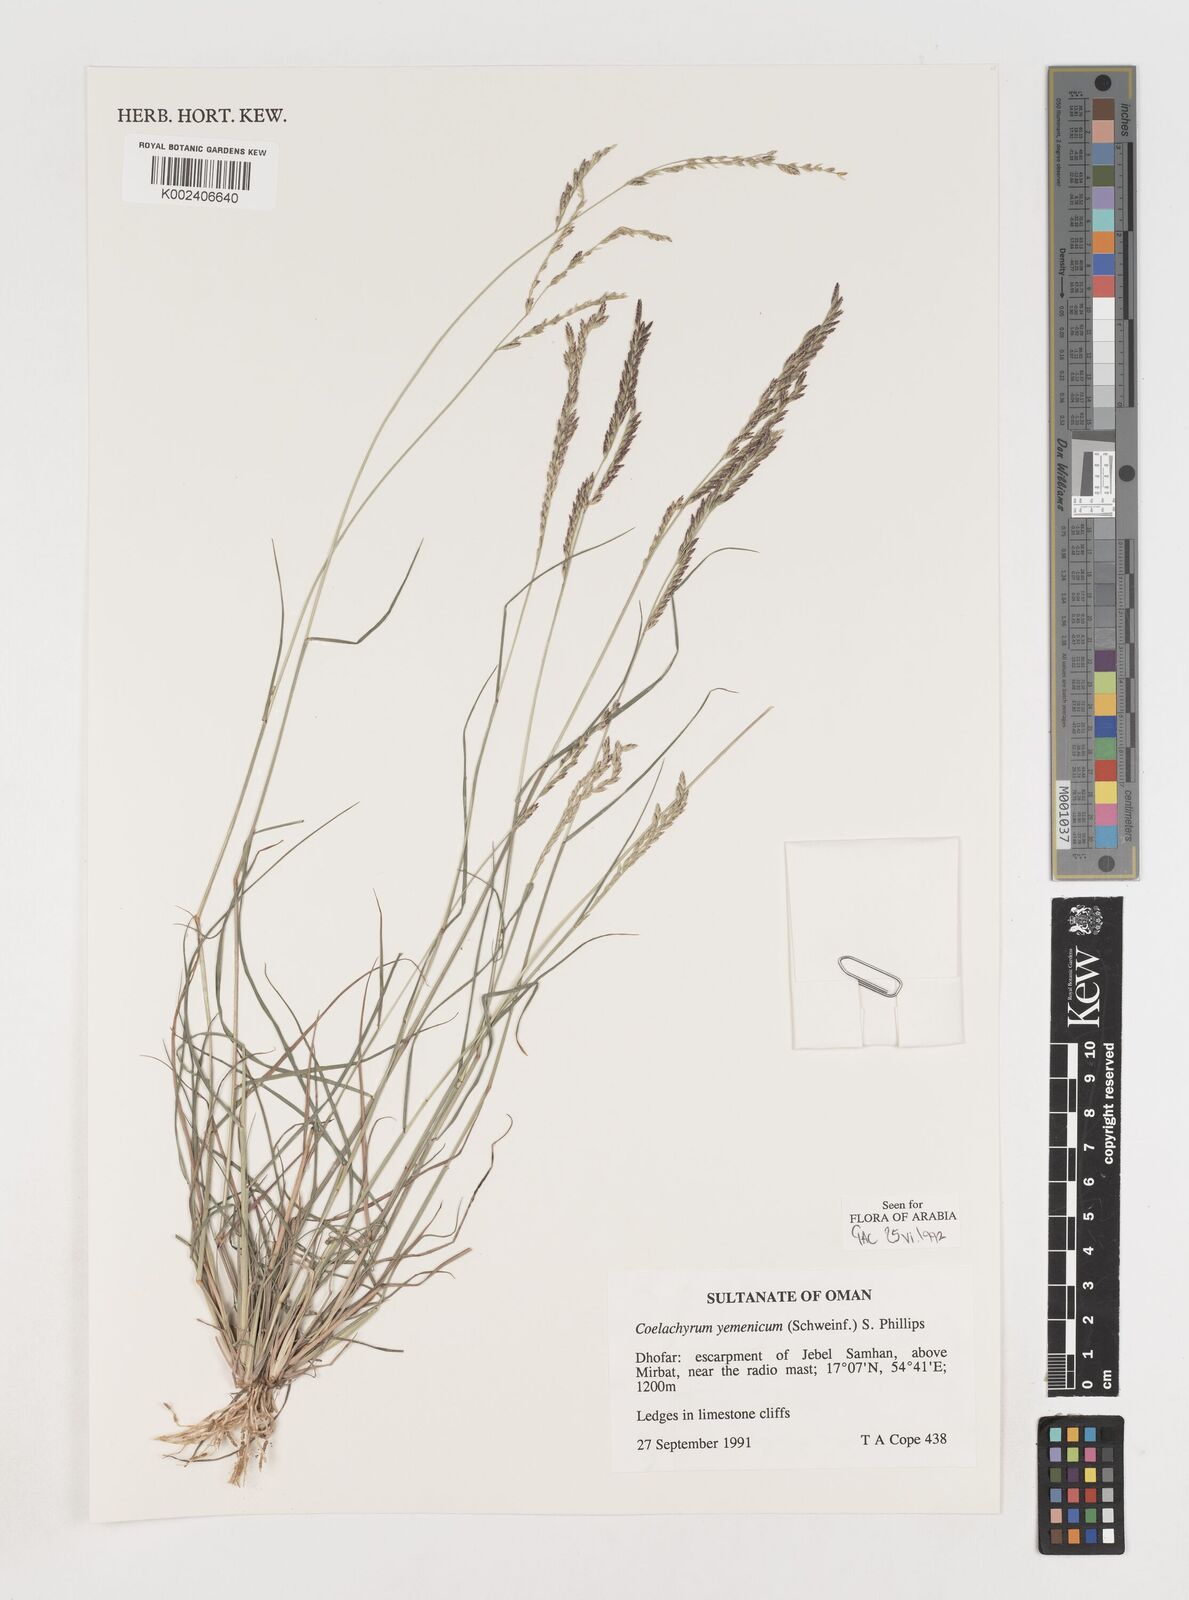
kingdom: Plantae
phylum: Tracheophyta
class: Liliopsida
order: Poales
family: Poaceae
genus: Disakisperma
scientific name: Disakisperma yemenicum
